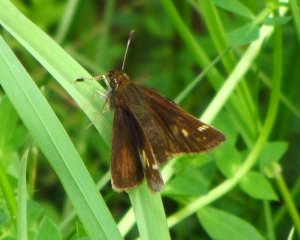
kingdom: Animalia
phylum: Arthropoda
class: Insecta
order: Lepidoptera
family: Hesperiidae
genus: Lon
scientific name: Lon hobomok
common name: Hobomok Skipper
